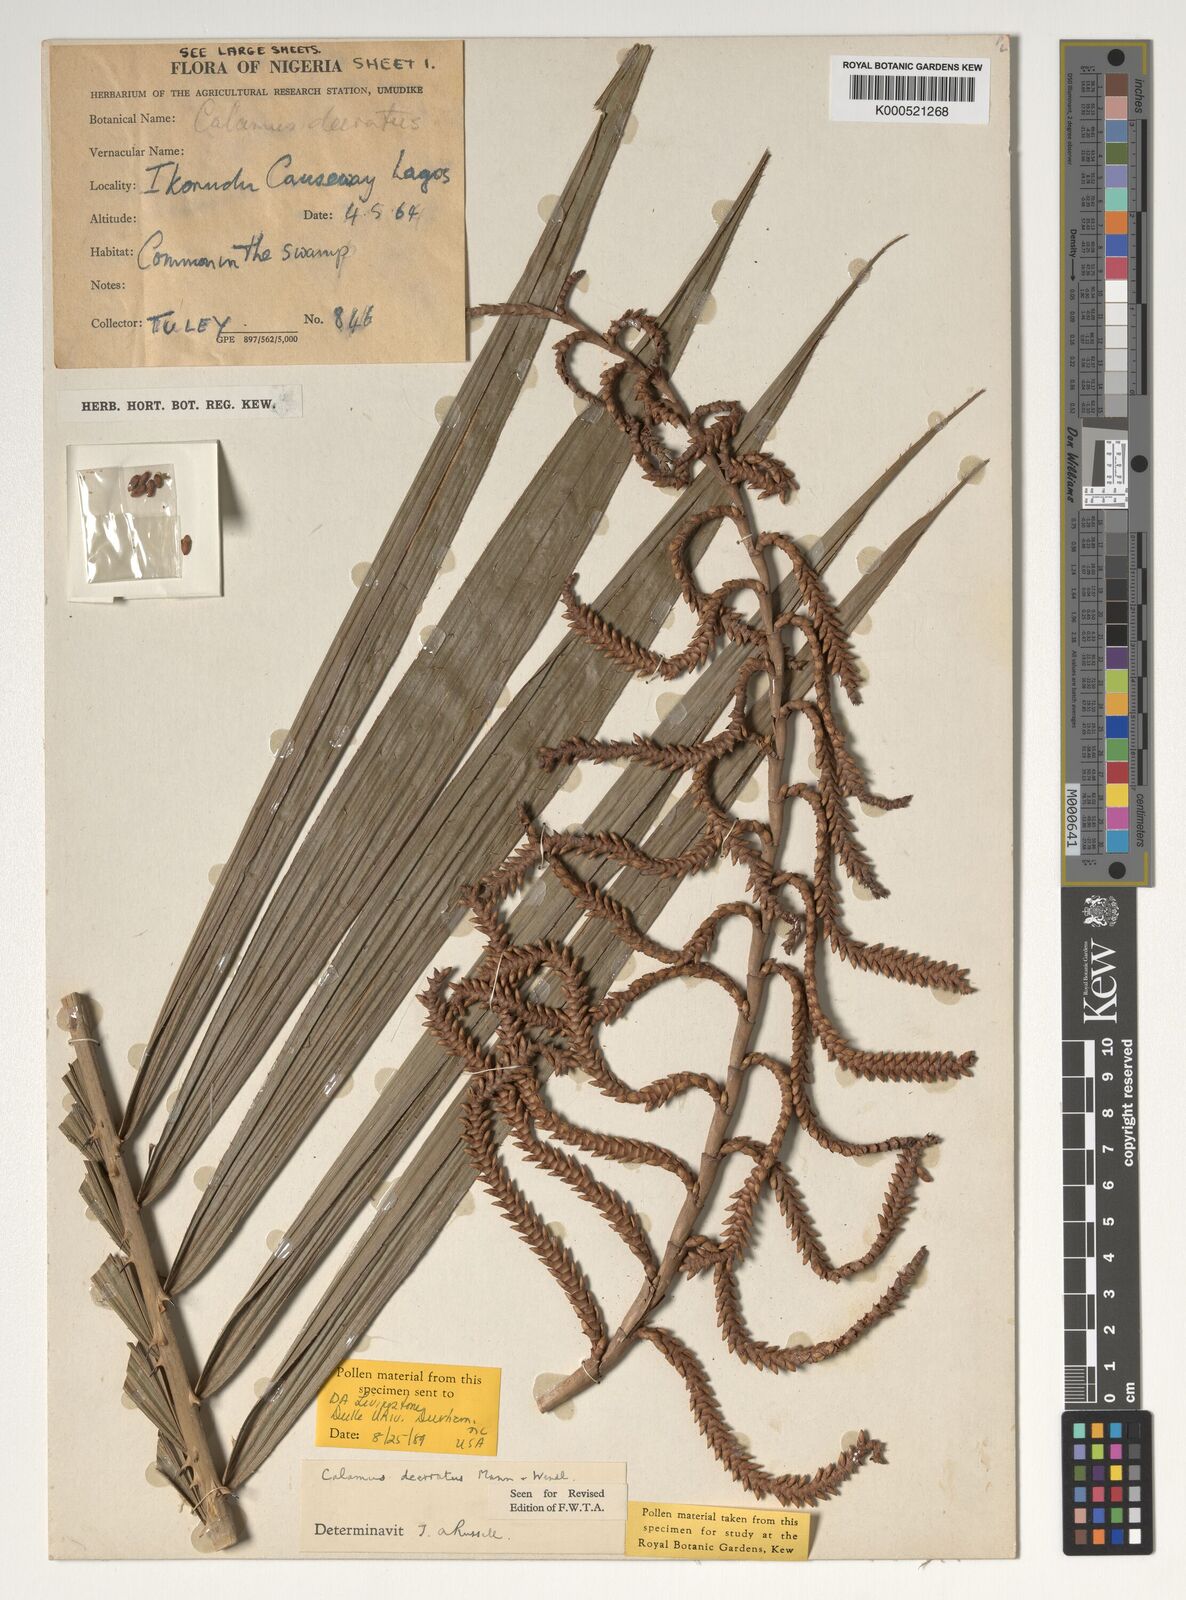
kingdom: Plantae
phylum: Tracheophyta
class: Liliopsida
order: Arecales
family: Arecaceae
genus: Calamus
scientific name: Calamus deerratus
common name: Rattan
